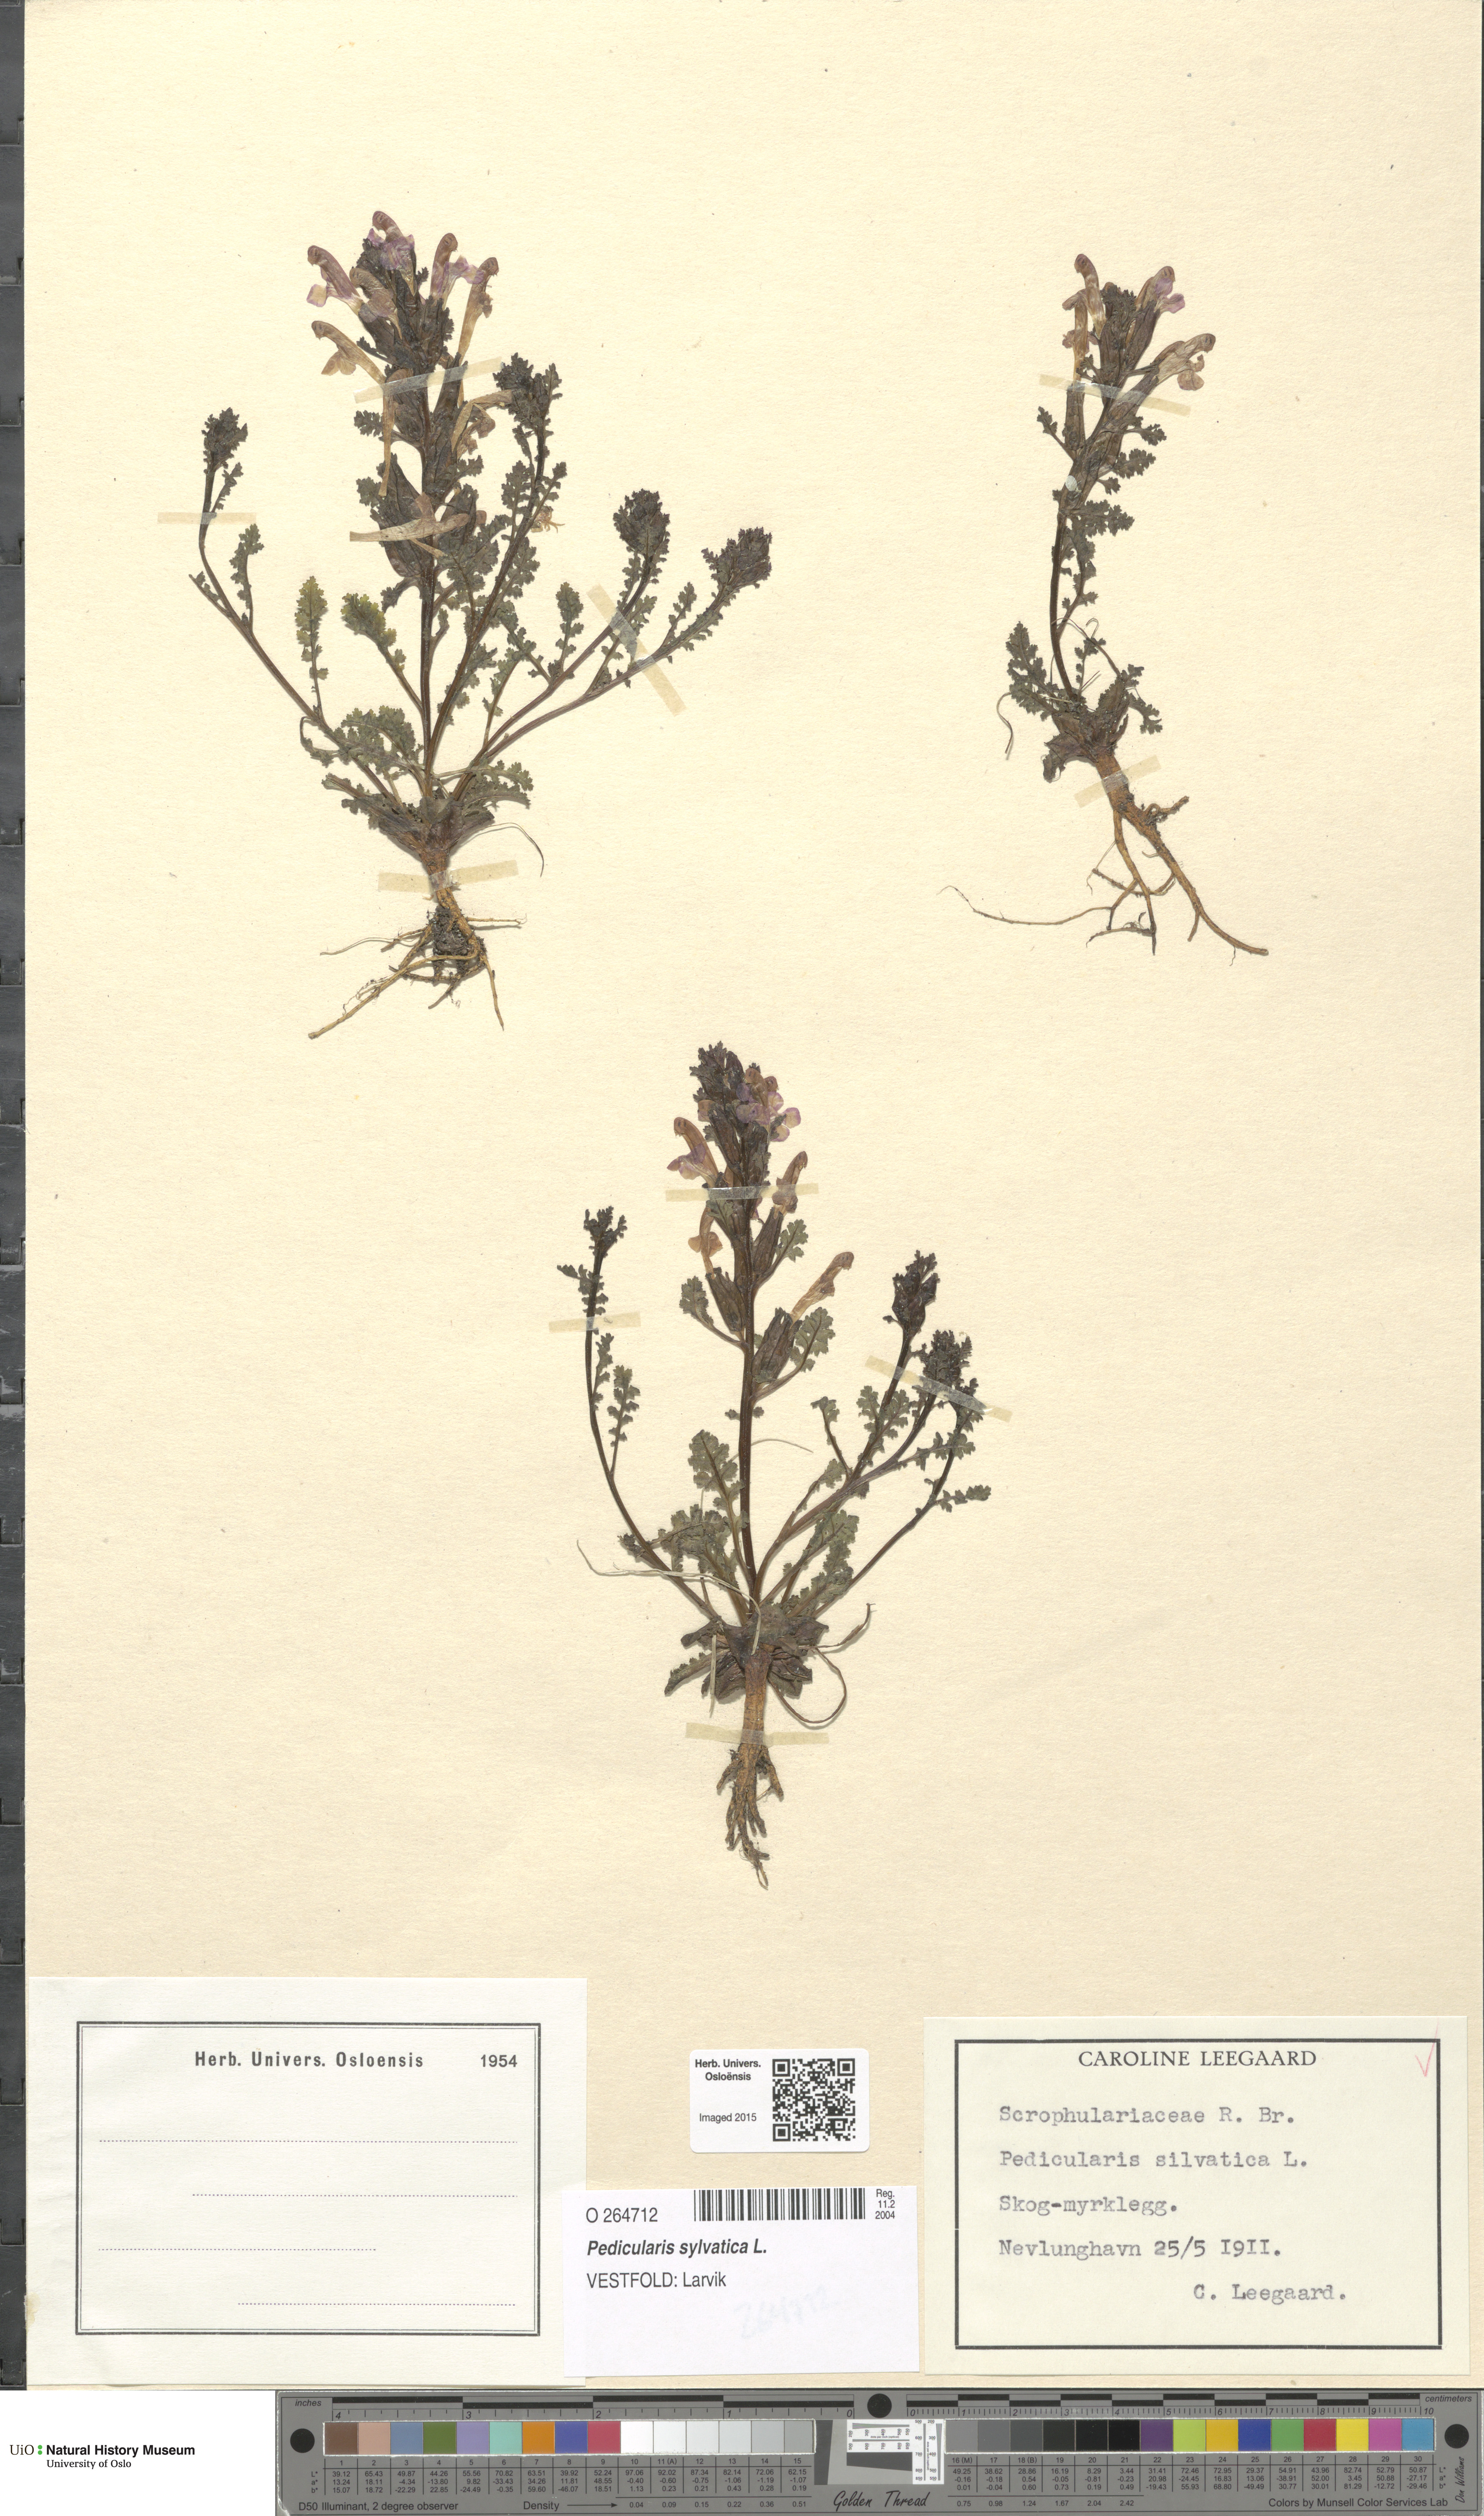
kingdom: Plantae
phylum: Tracheophyta
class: Magnoliopsida
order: Lamiales
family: Orobanchaceae
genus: Pedicularis
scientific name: Pedicularis sylvatica
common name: Lousewort
